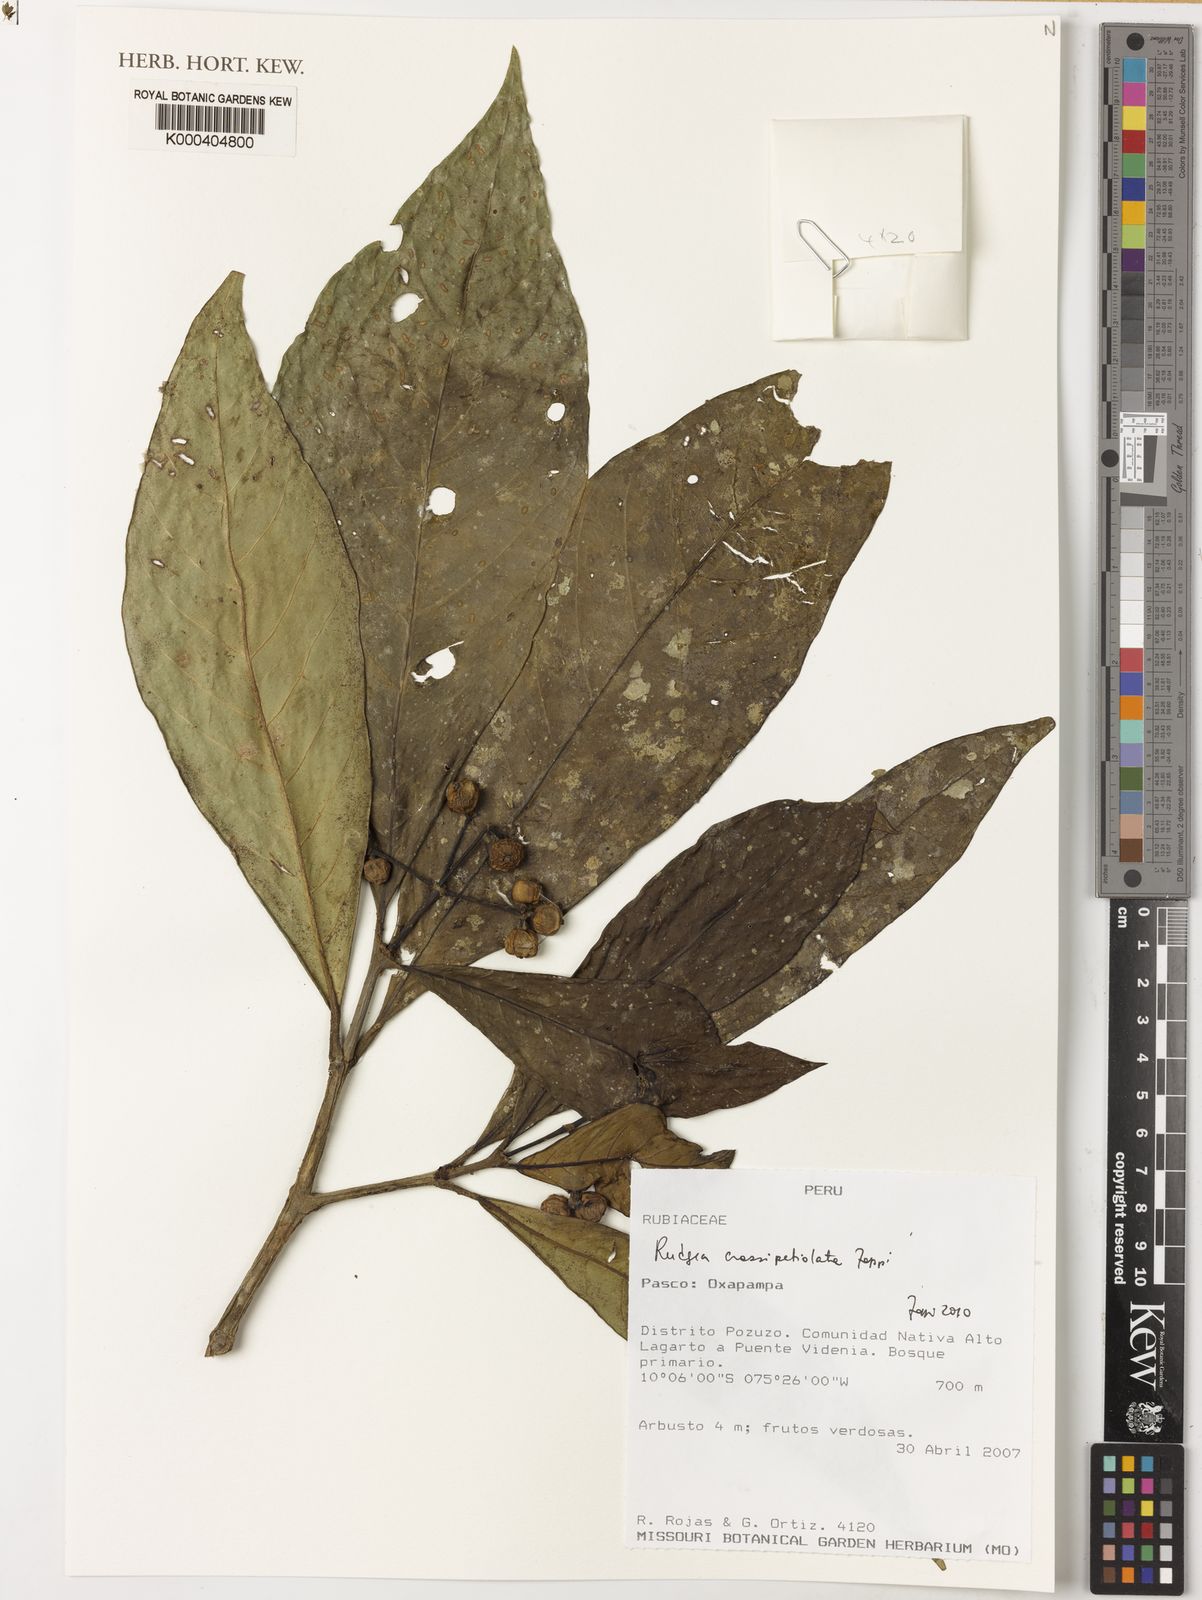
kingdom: Plantae
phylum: Tracheophyta
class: Magnoliopsida
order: Gentianales
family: Rubiaceae
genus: Rudgea
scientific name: Rudgea crassipetiolata
